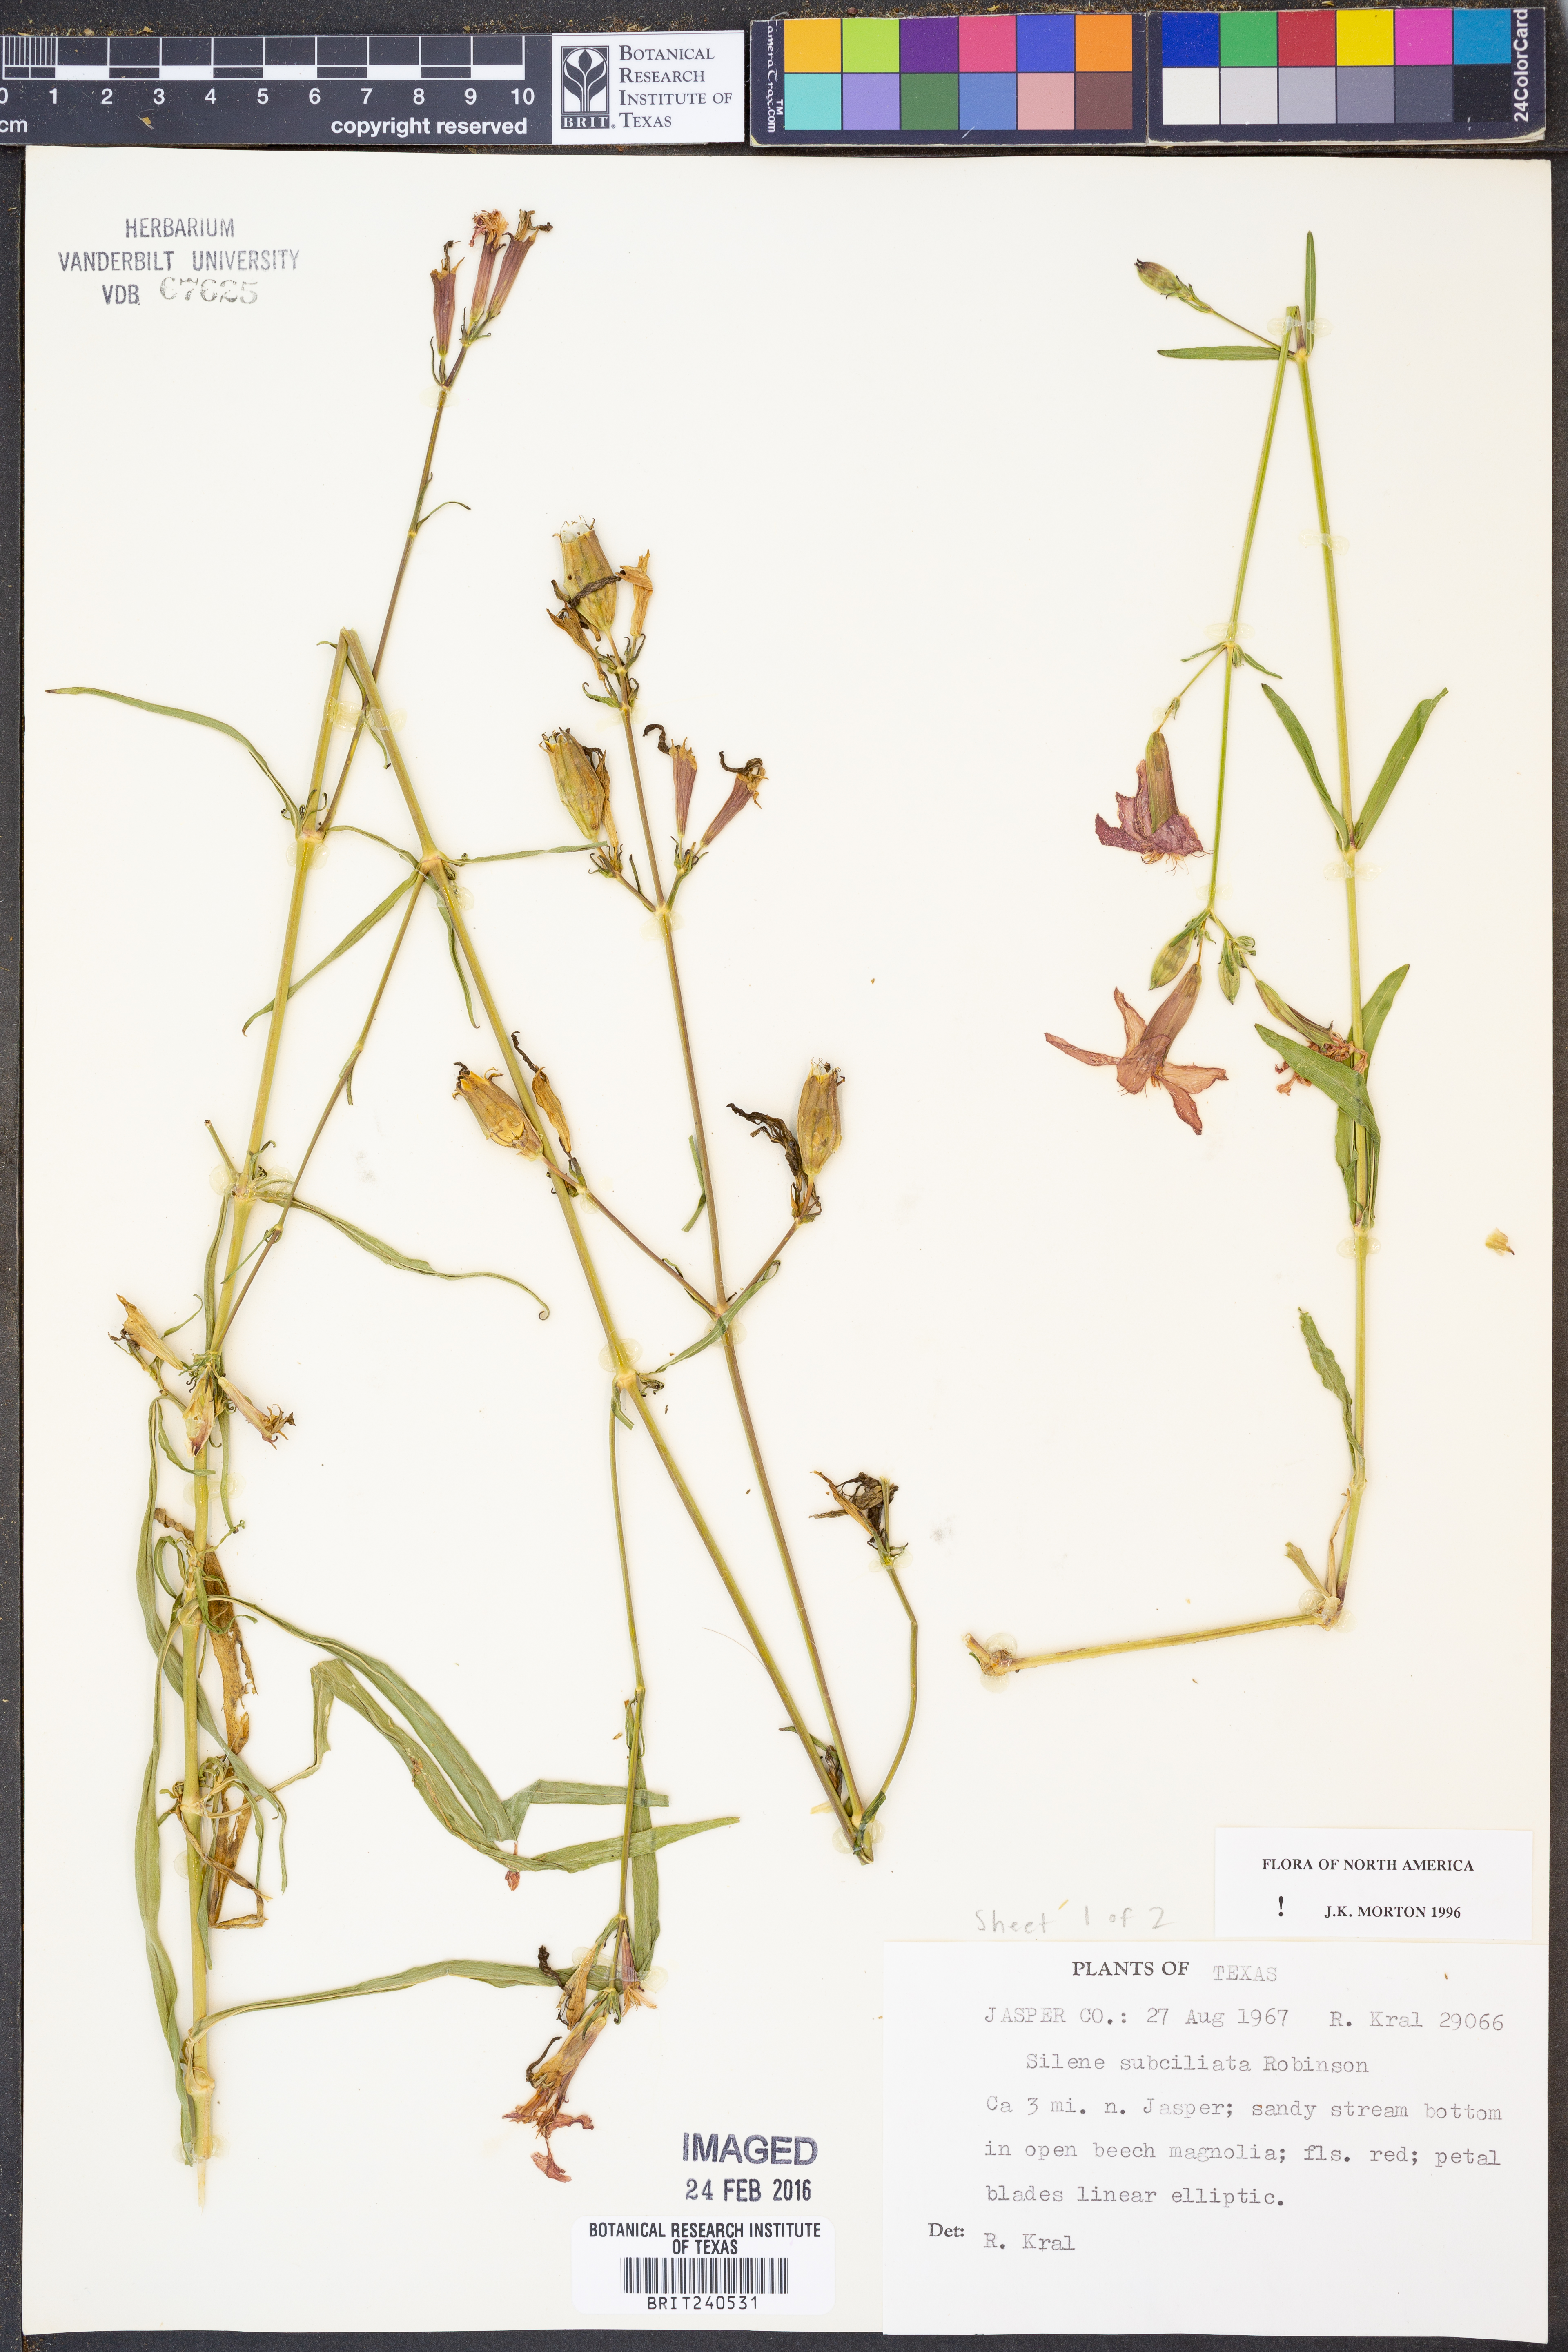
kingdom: Plantae
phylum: Tracheophyta
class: Magnoliopsida
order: Caryophyllales
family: Caryophyllaceae
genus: Silene
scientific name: Silene subciliata
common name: Prairie fire-pink
